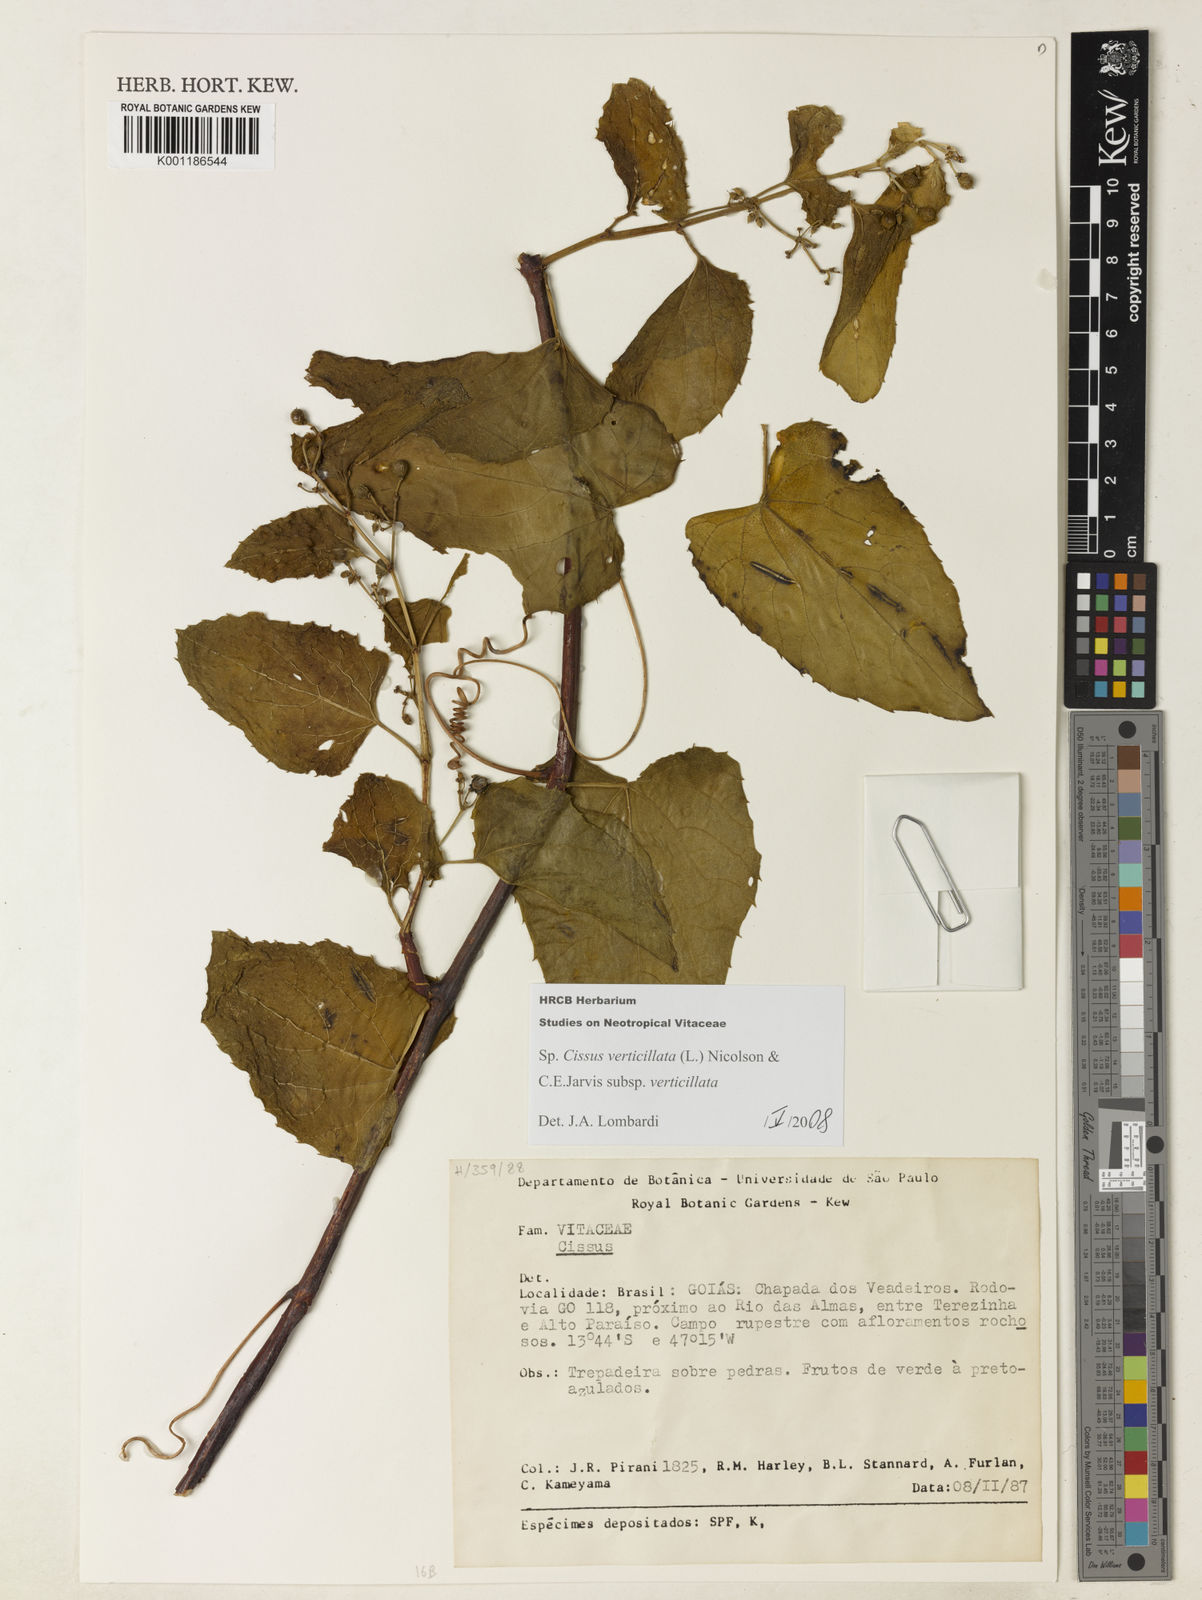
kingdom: Plantae
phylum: Tracheophyta
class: Magnoliopsida
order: Vitales
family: Vitaceae
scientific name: Vitaceae
